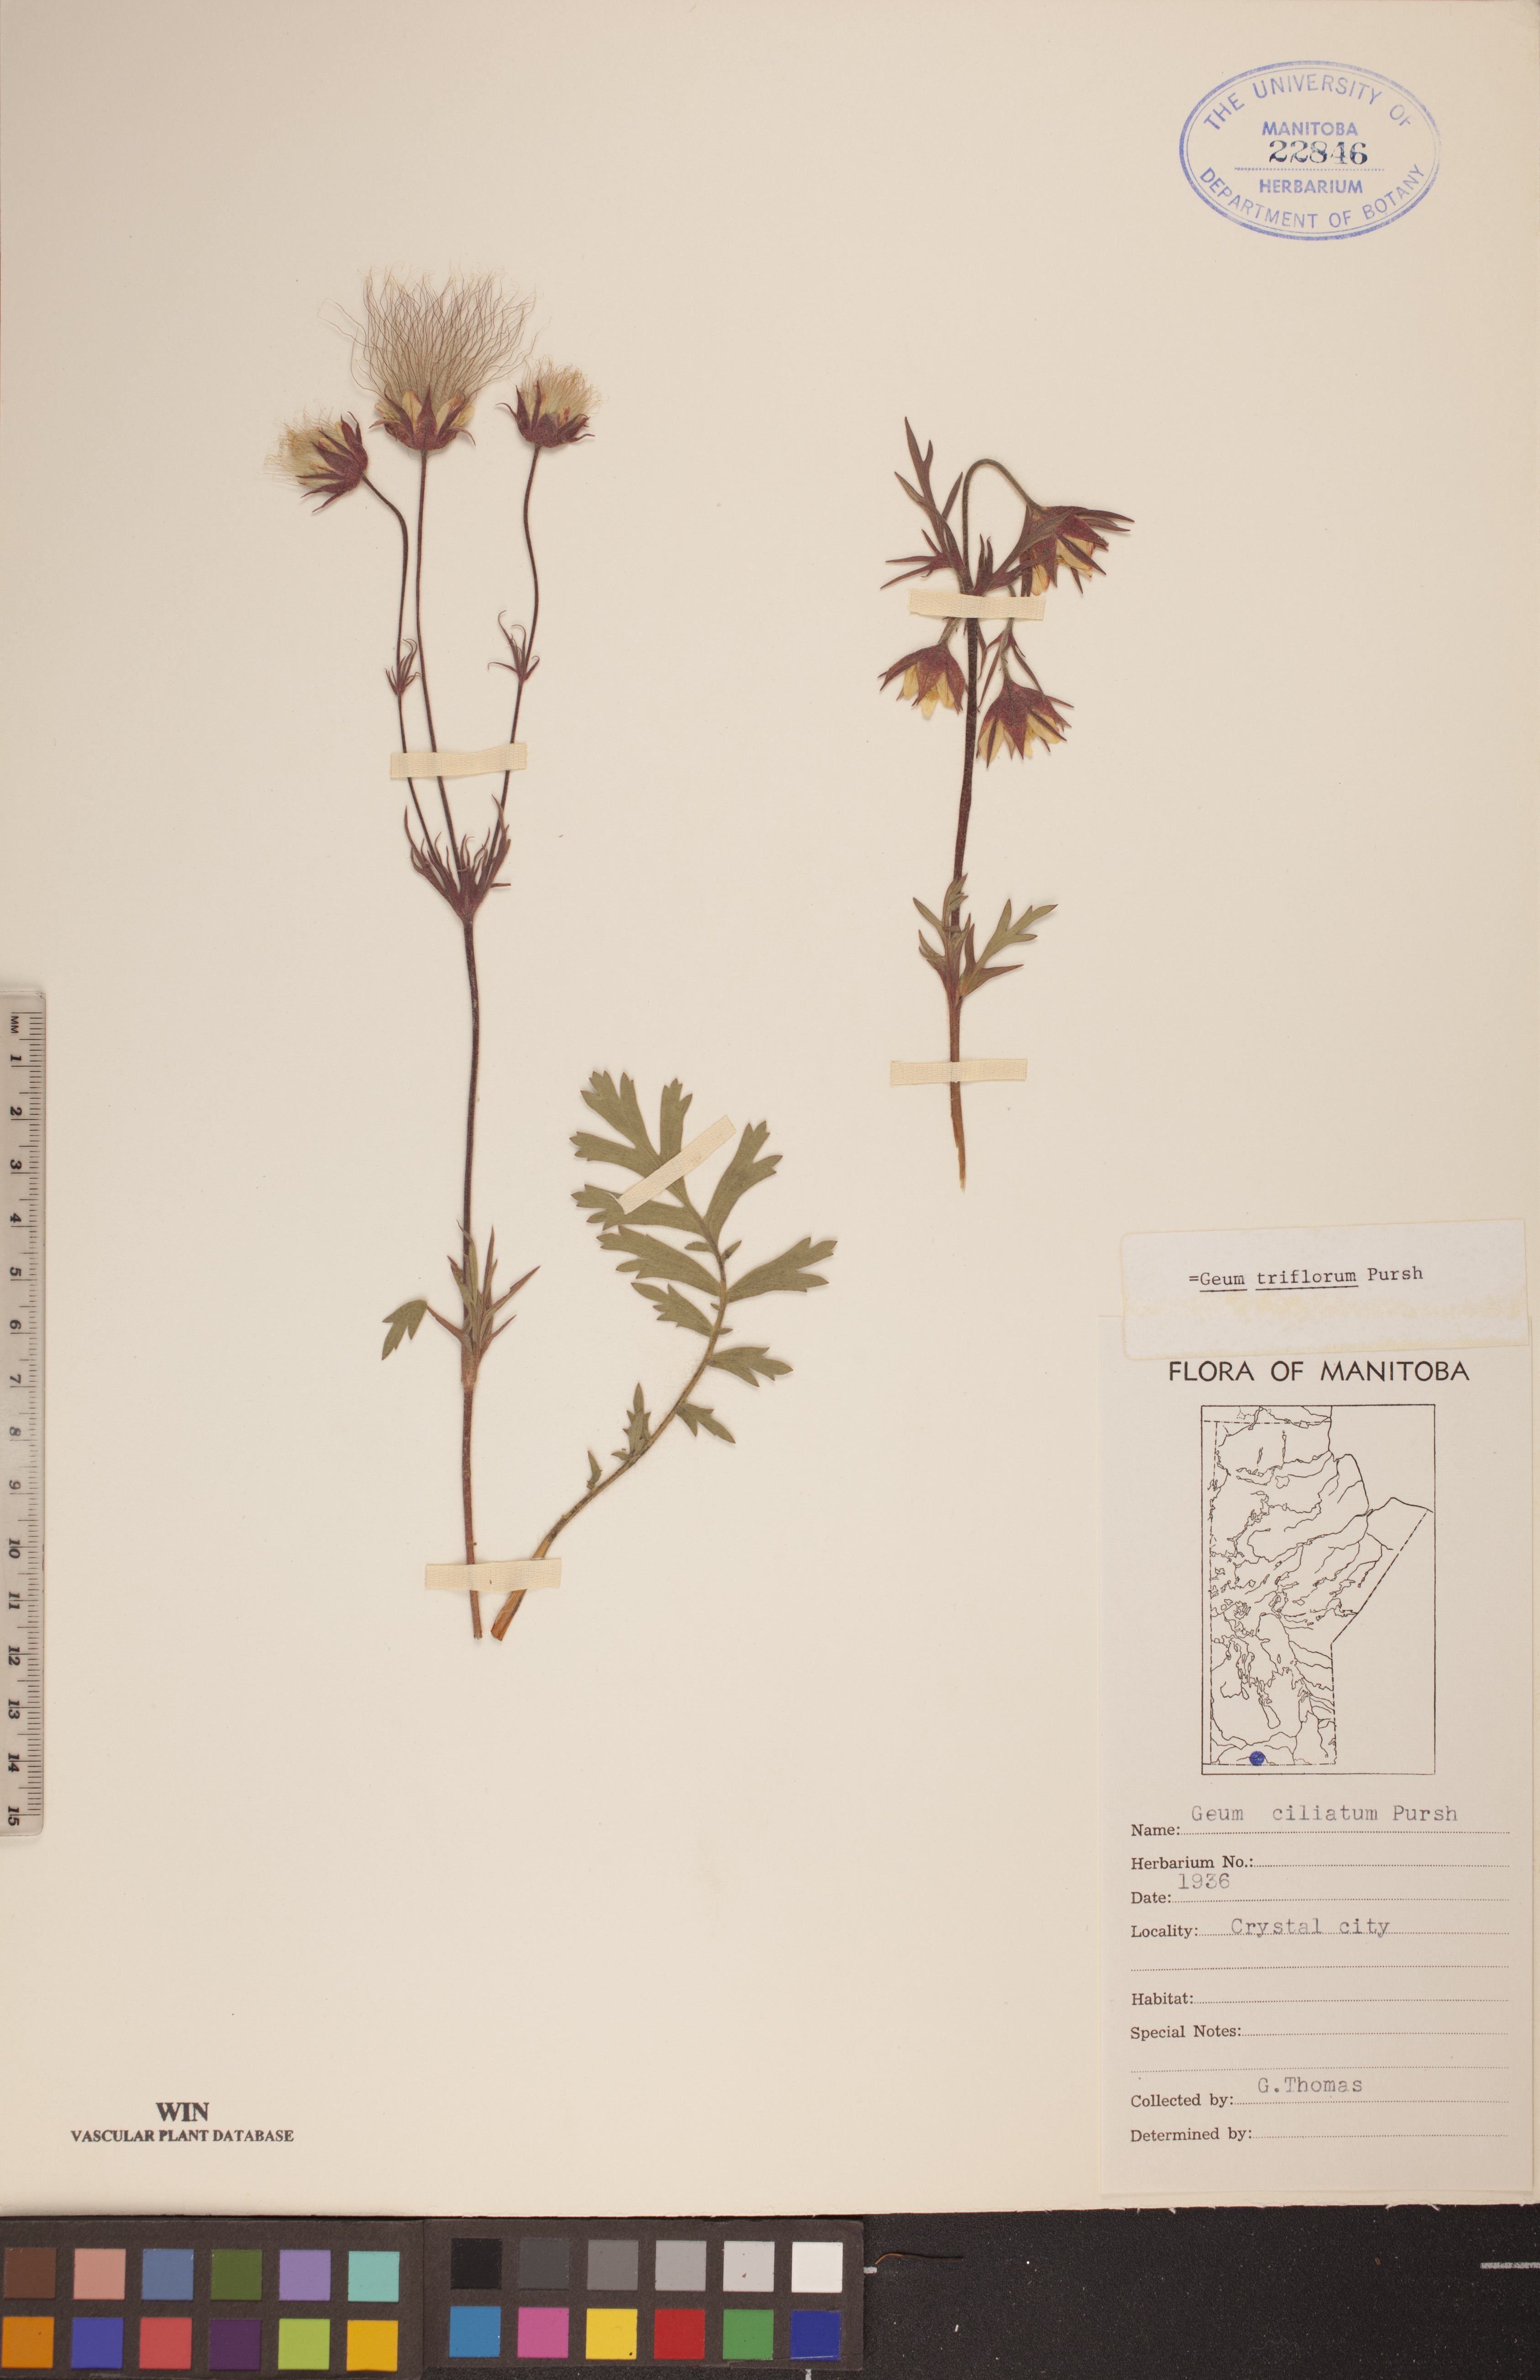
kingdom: Plantae
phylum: Tracheophyta
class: Magnoliopsida
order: Rosales
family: Rosaceae
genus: Geum
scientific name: Geum triflorum
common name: Old man's whiskers
